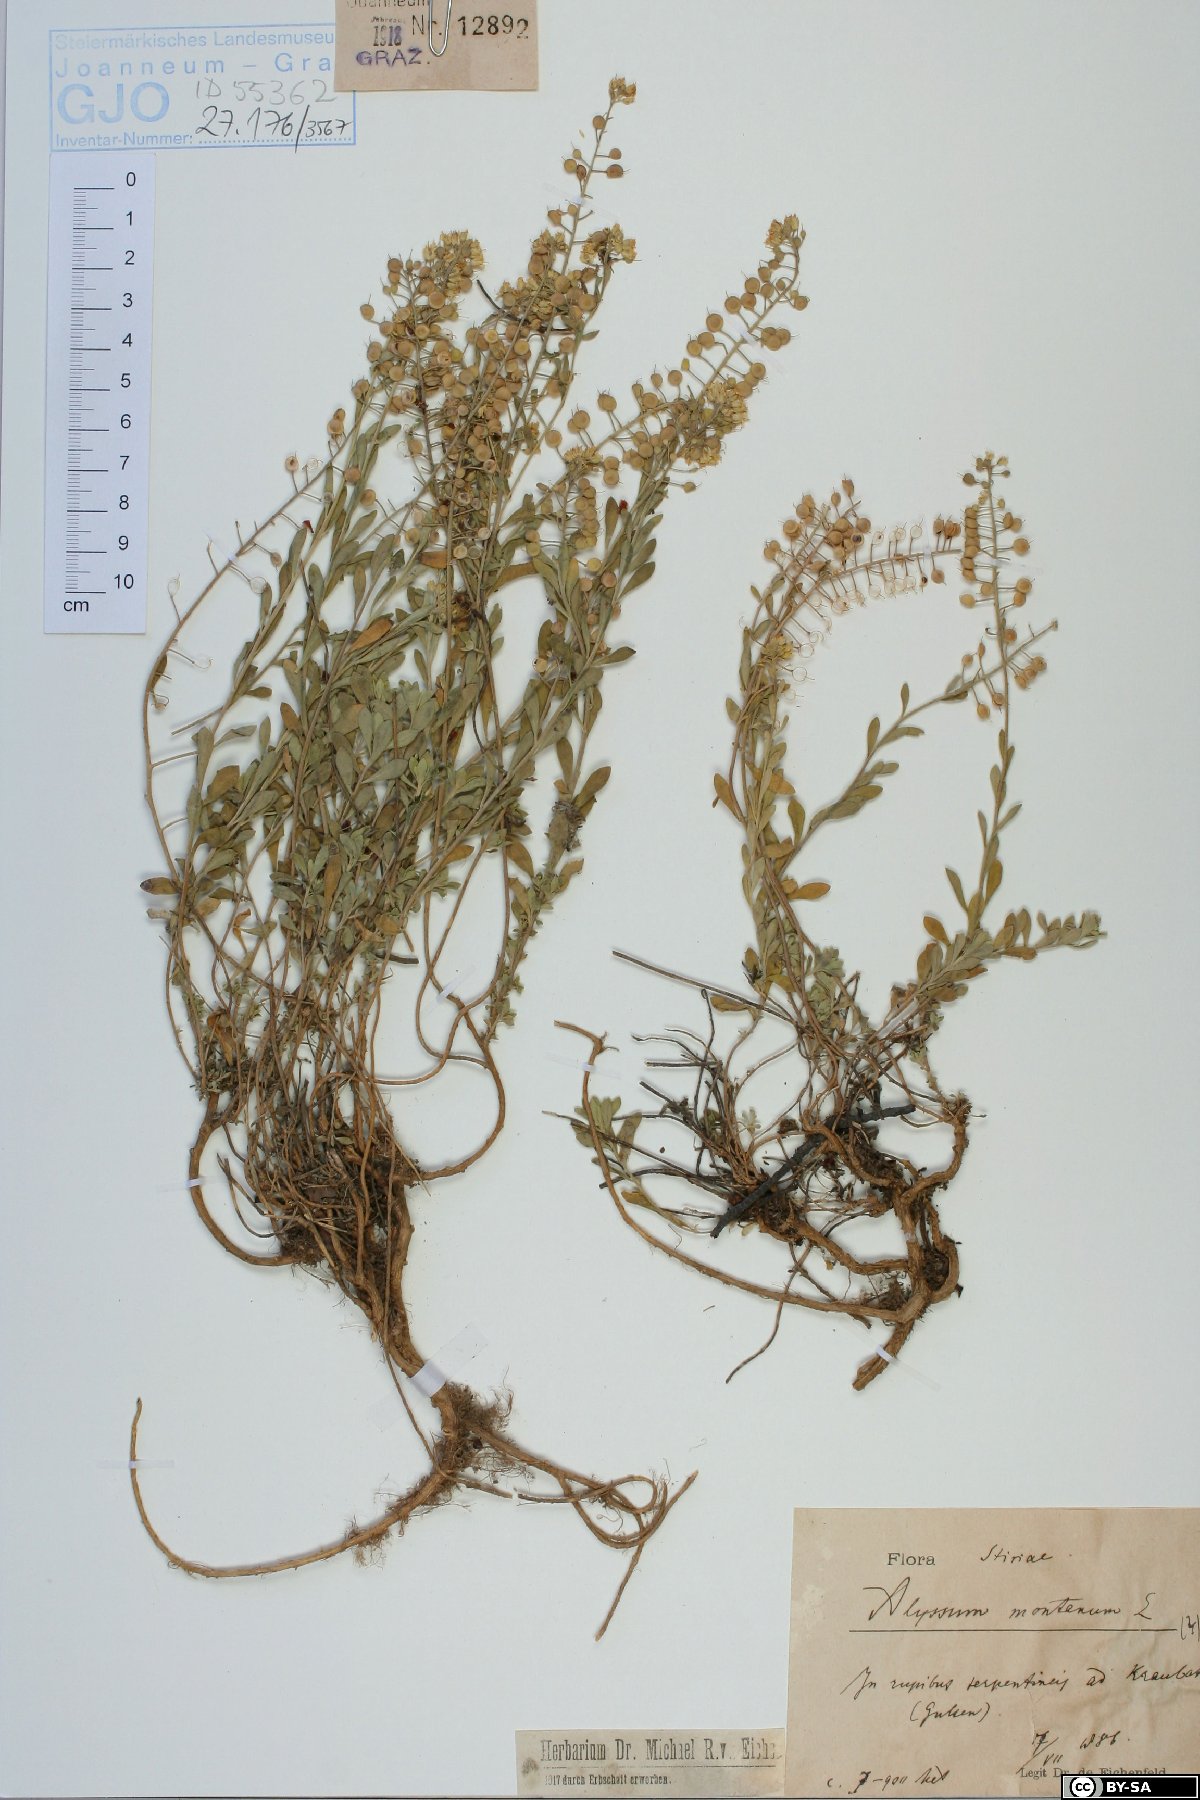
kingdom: Plantae
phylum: Tracheophyta
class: Magnoliopsida
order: Brassicales
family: Brassicaceae
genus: Alyssum
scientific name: Alyssum montanum
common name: Mountain alison
